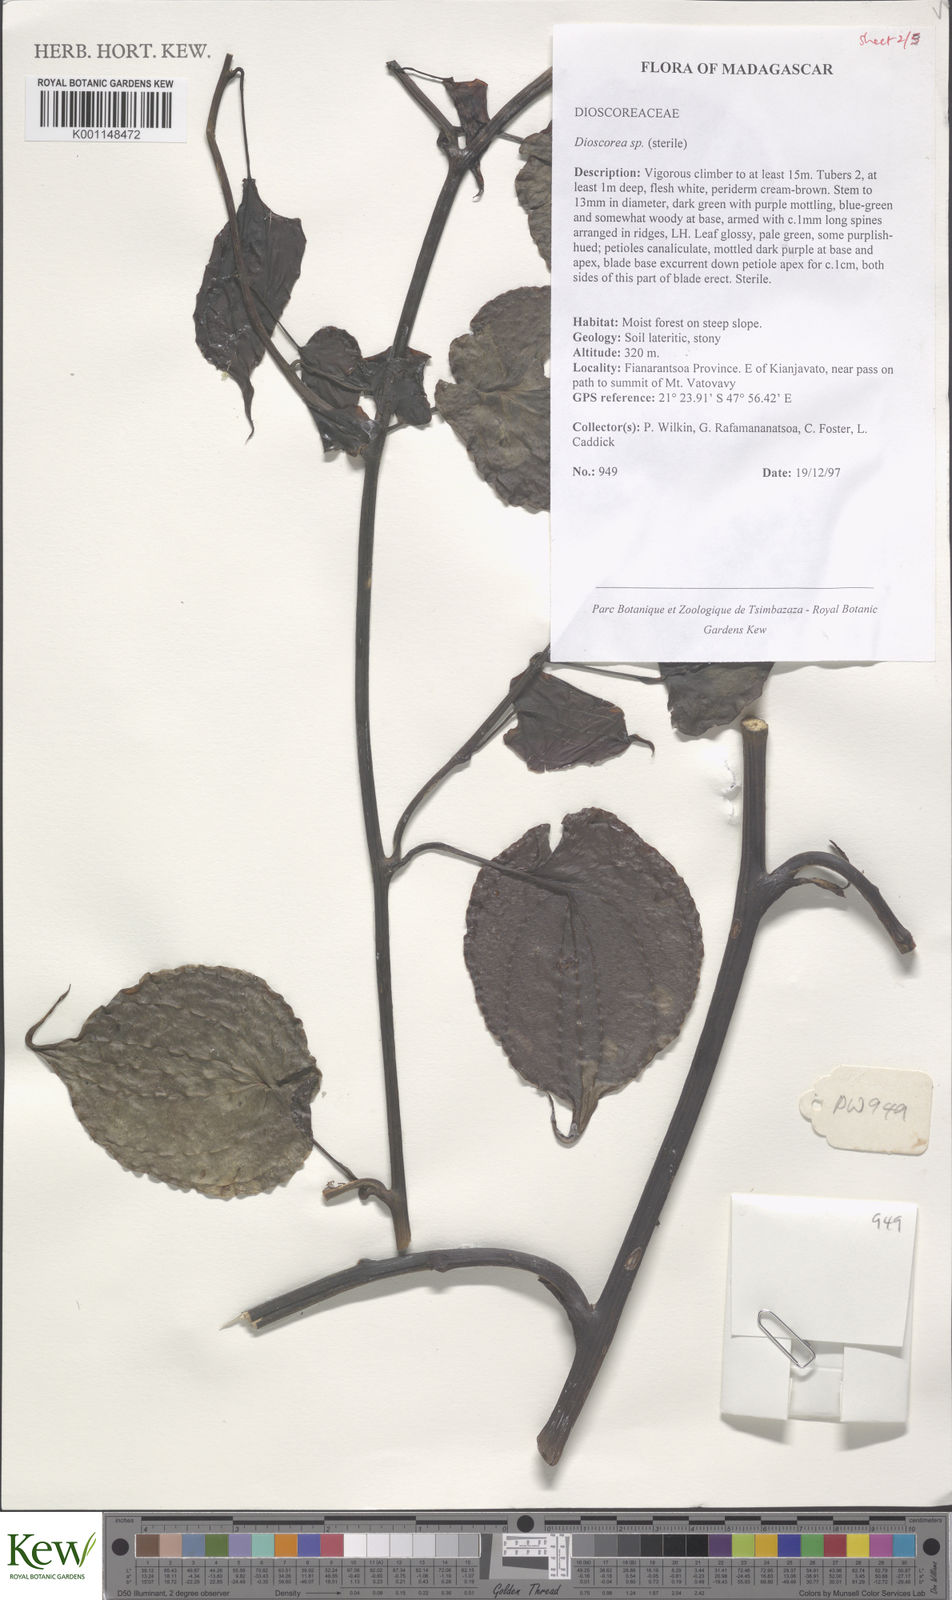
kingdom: Plantae
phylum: Tracheophyta
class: Liliopsida
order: Dioscoreales
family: Dioscoreaceae
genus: Dioscorea
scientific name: Dioscorea
